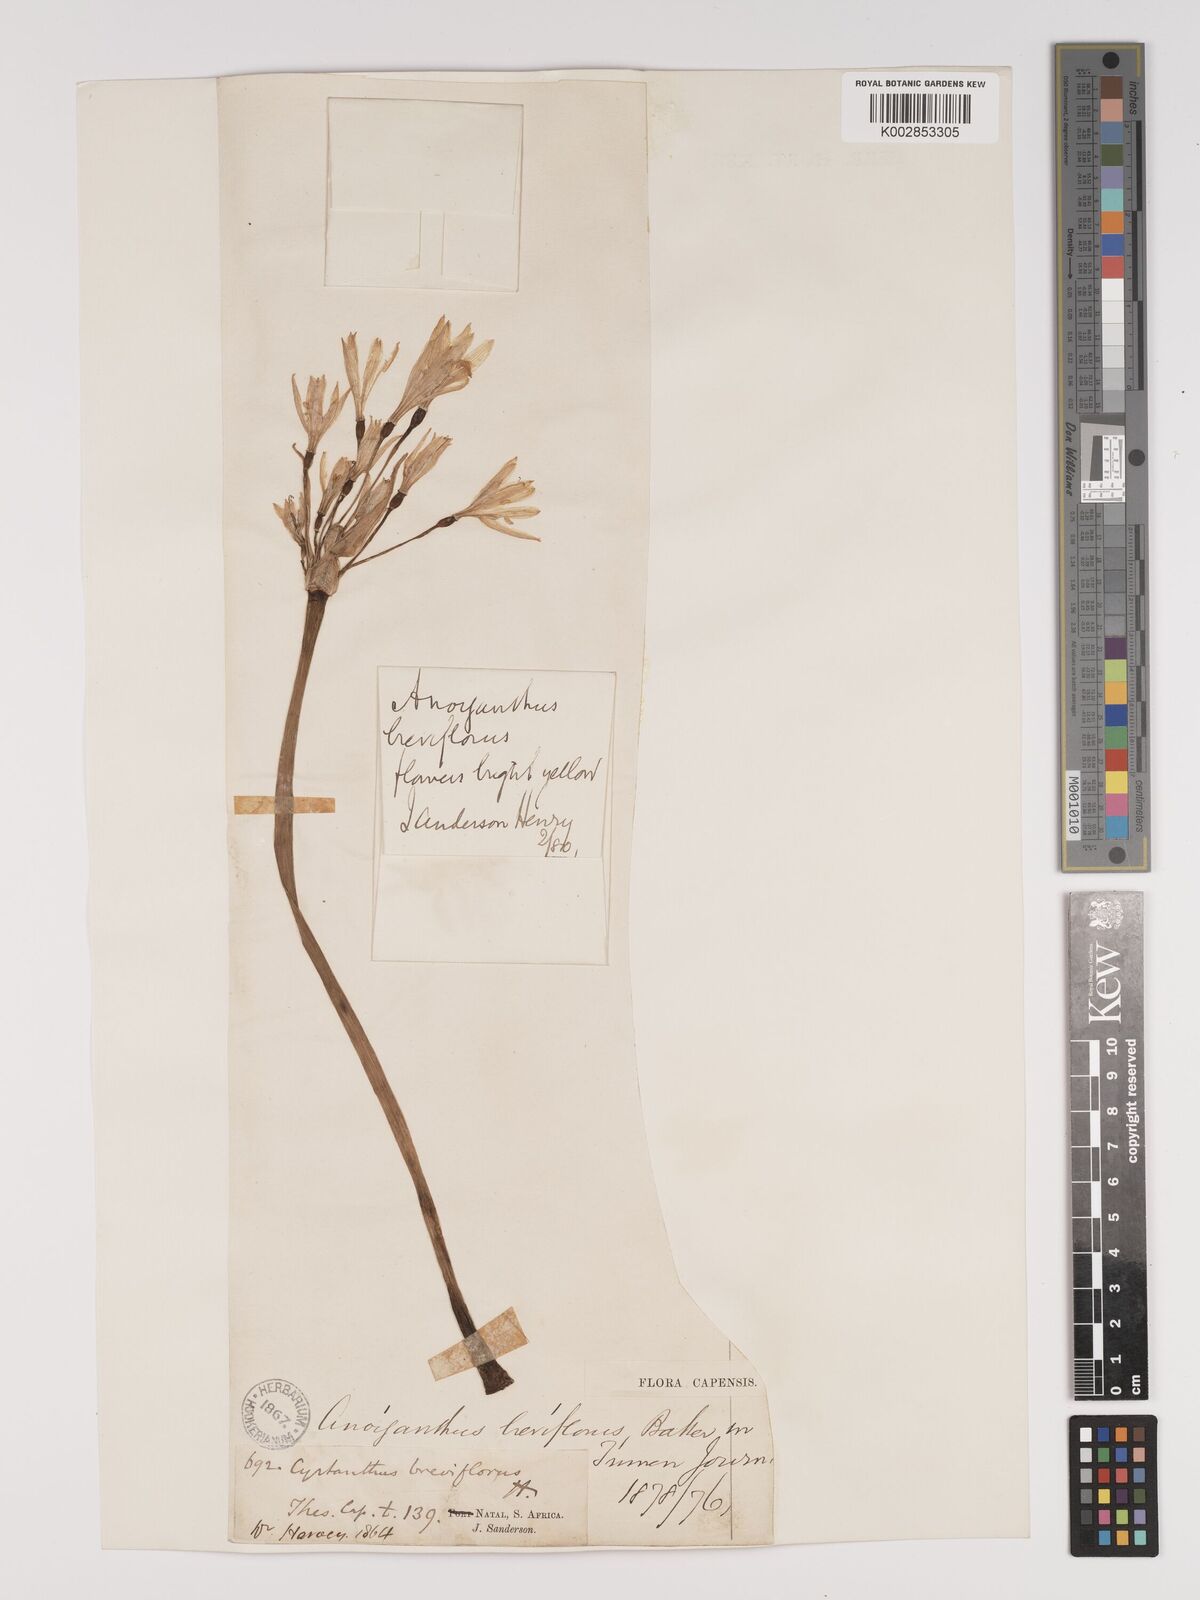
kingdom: Plantae
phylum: Tracheophyta
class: Liliopsida
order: Asparagales
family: Amaryllidaceae
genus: Cyrtanthus
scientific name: Cyrtanthus breviflorus
